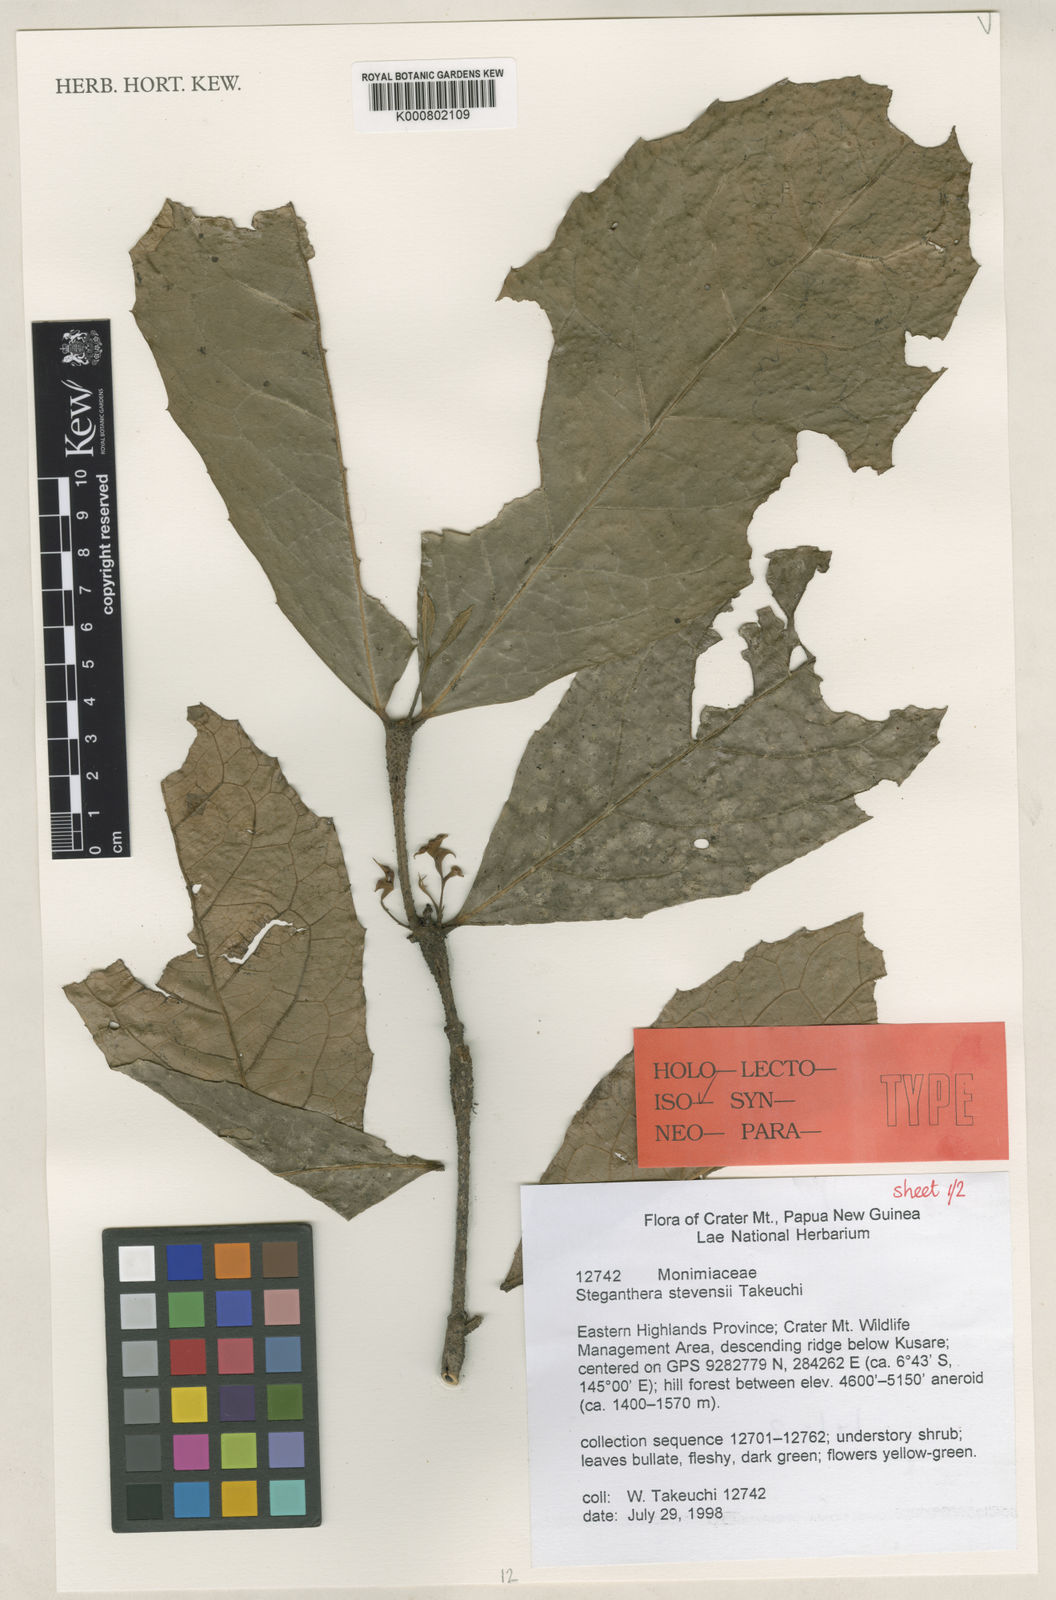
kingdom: Plantae
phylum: Tracheophyta
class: Magnoliopsida
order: Laurales
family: Monimiaceae
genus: Steganthera
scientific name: Steganthera stevensii
